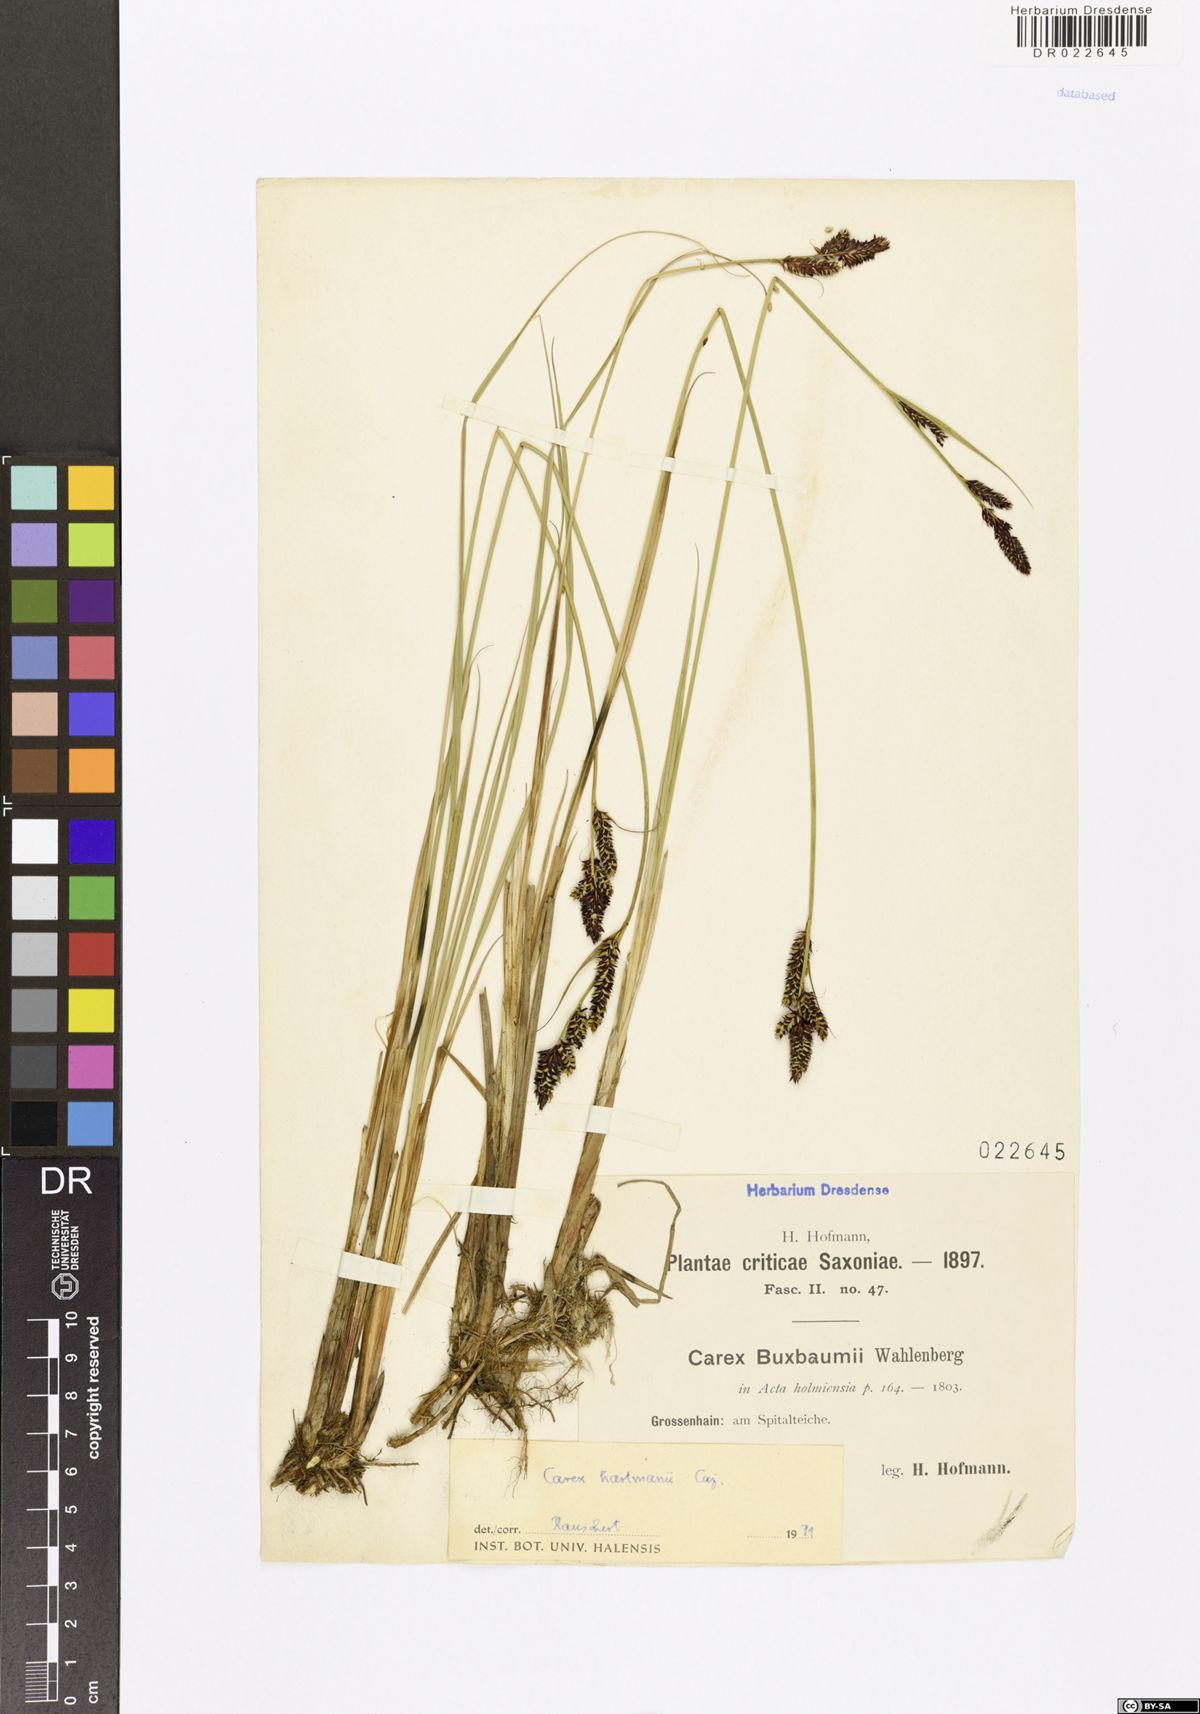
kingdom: Plantae
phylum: Tracheophyta
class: Liliopsida
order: Poales
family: Cyperaceae
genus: Carex
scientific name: Carex hartmaniorum
